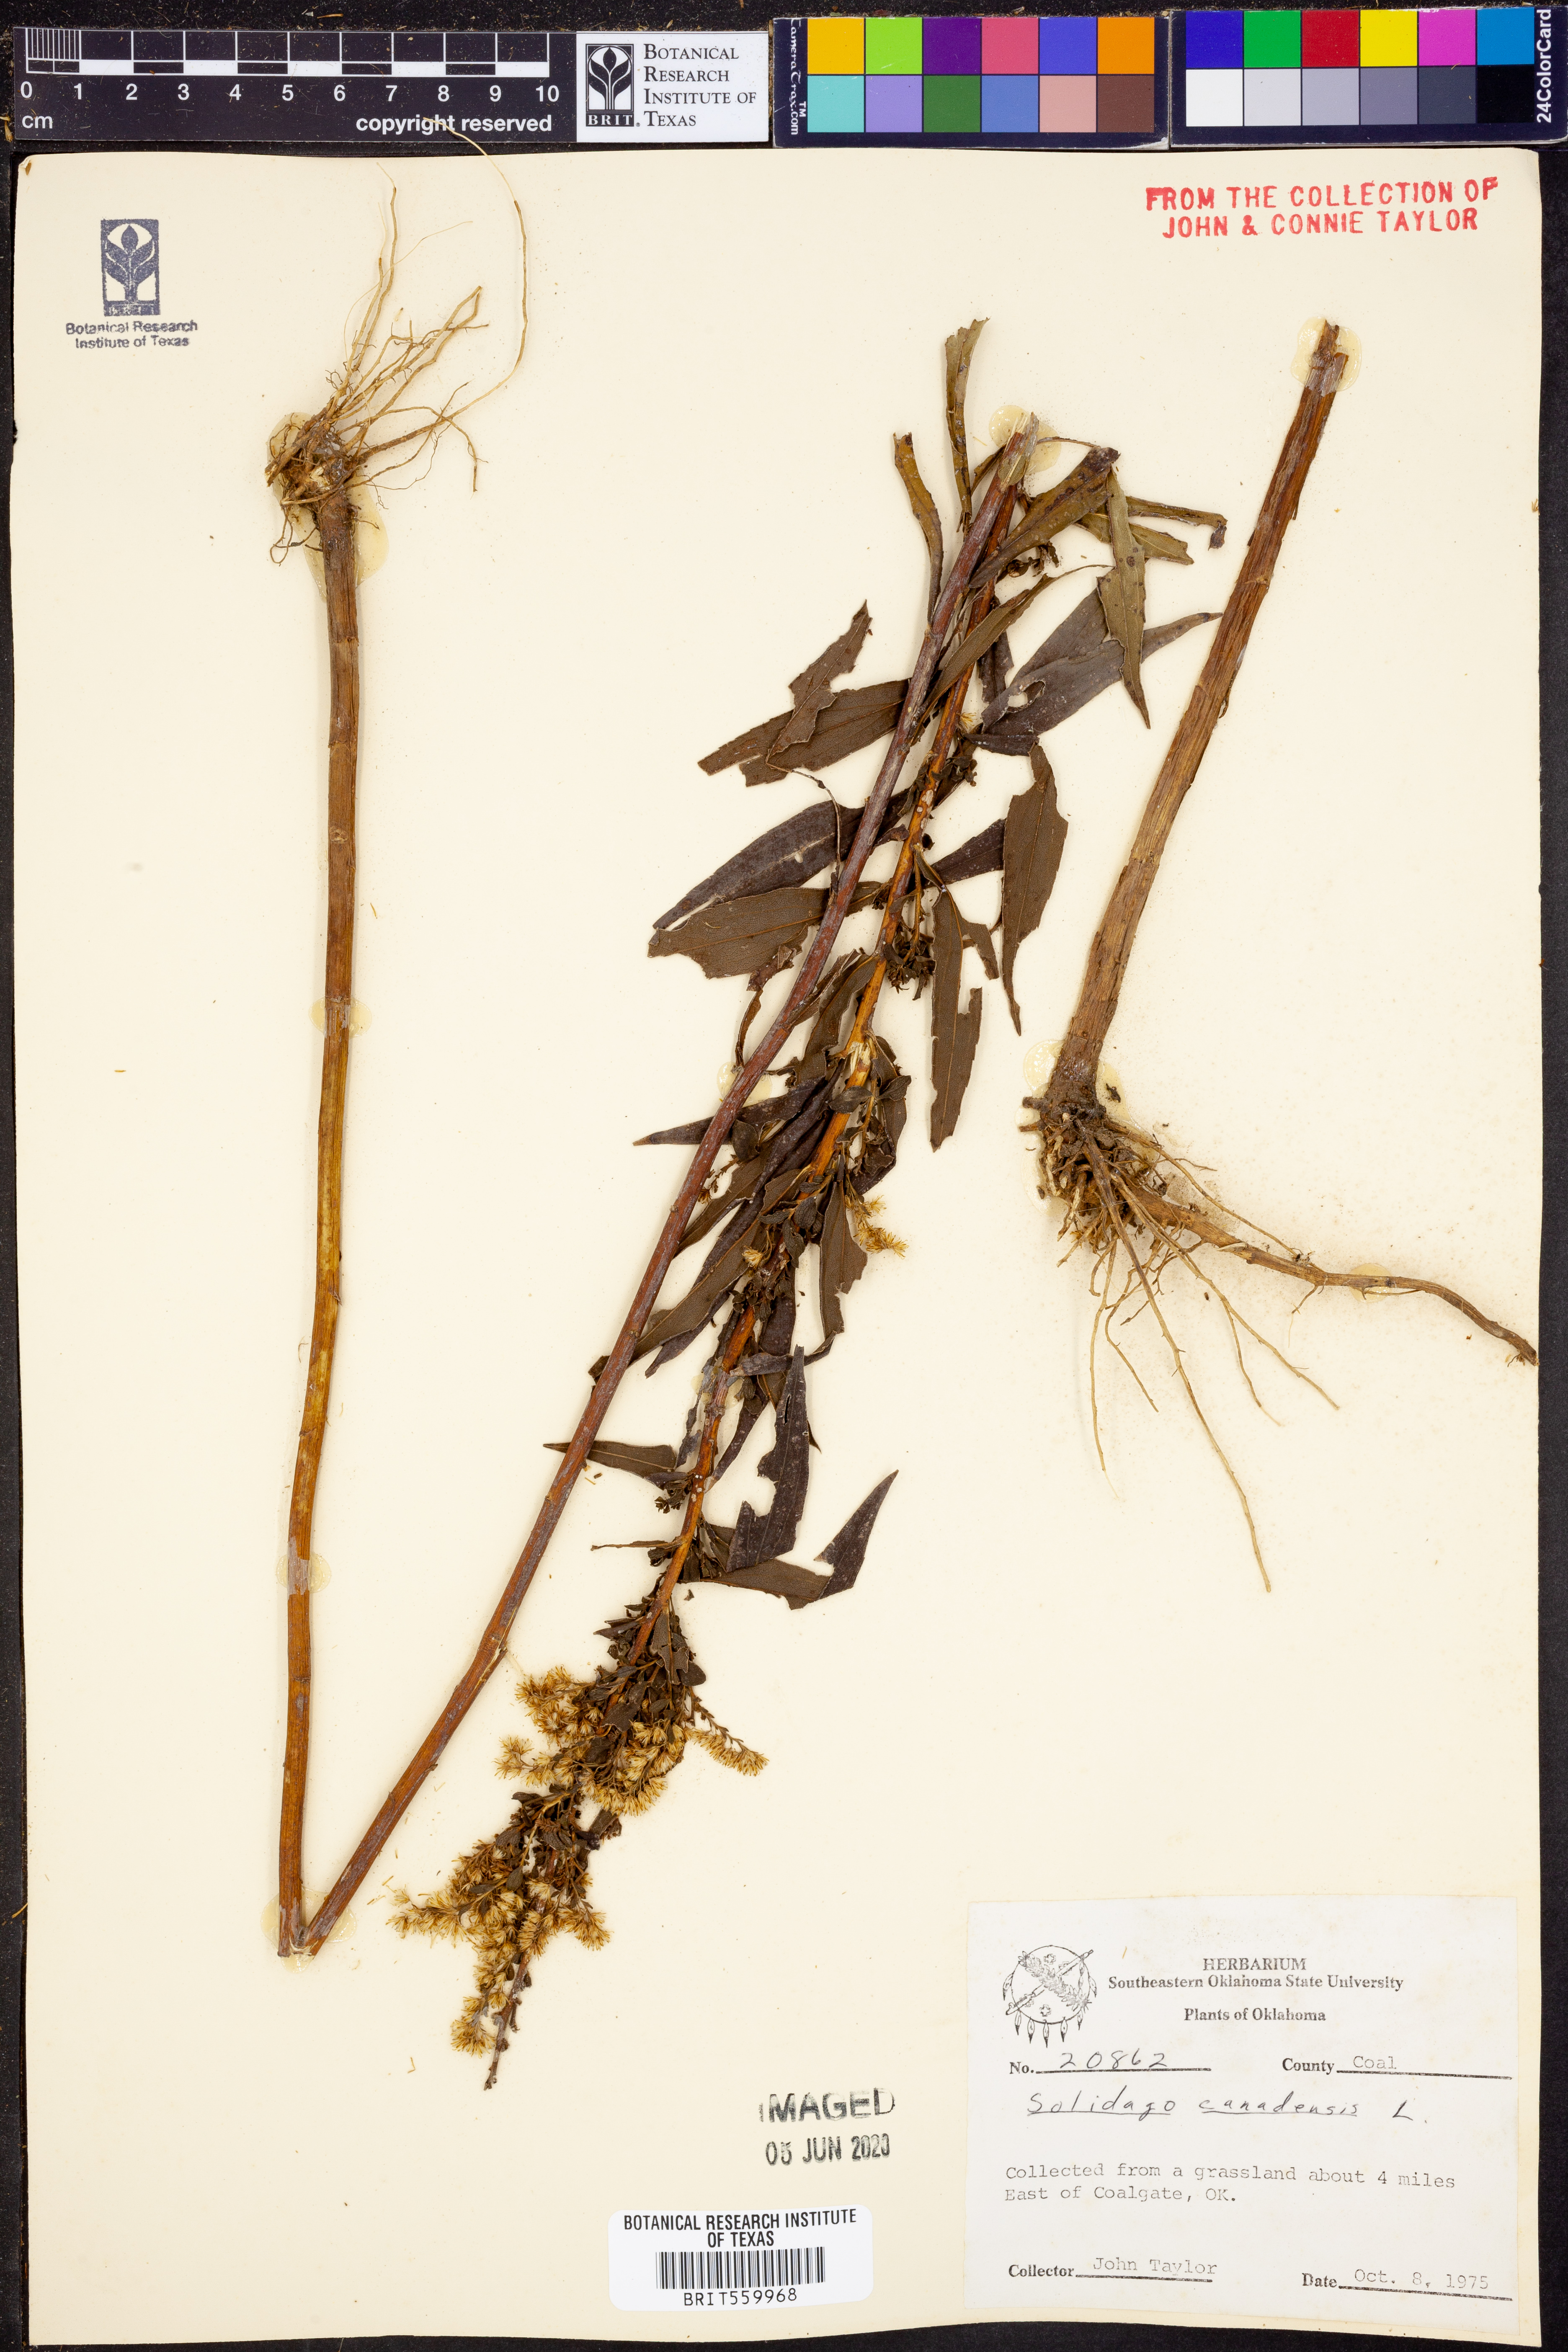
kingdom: Plantae
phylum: Tracheophyta
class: Magnoliopsida
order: Asterales
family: Asteraceae
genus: Solidago
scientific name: Solidago canadensis
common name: Canada goldenrod
